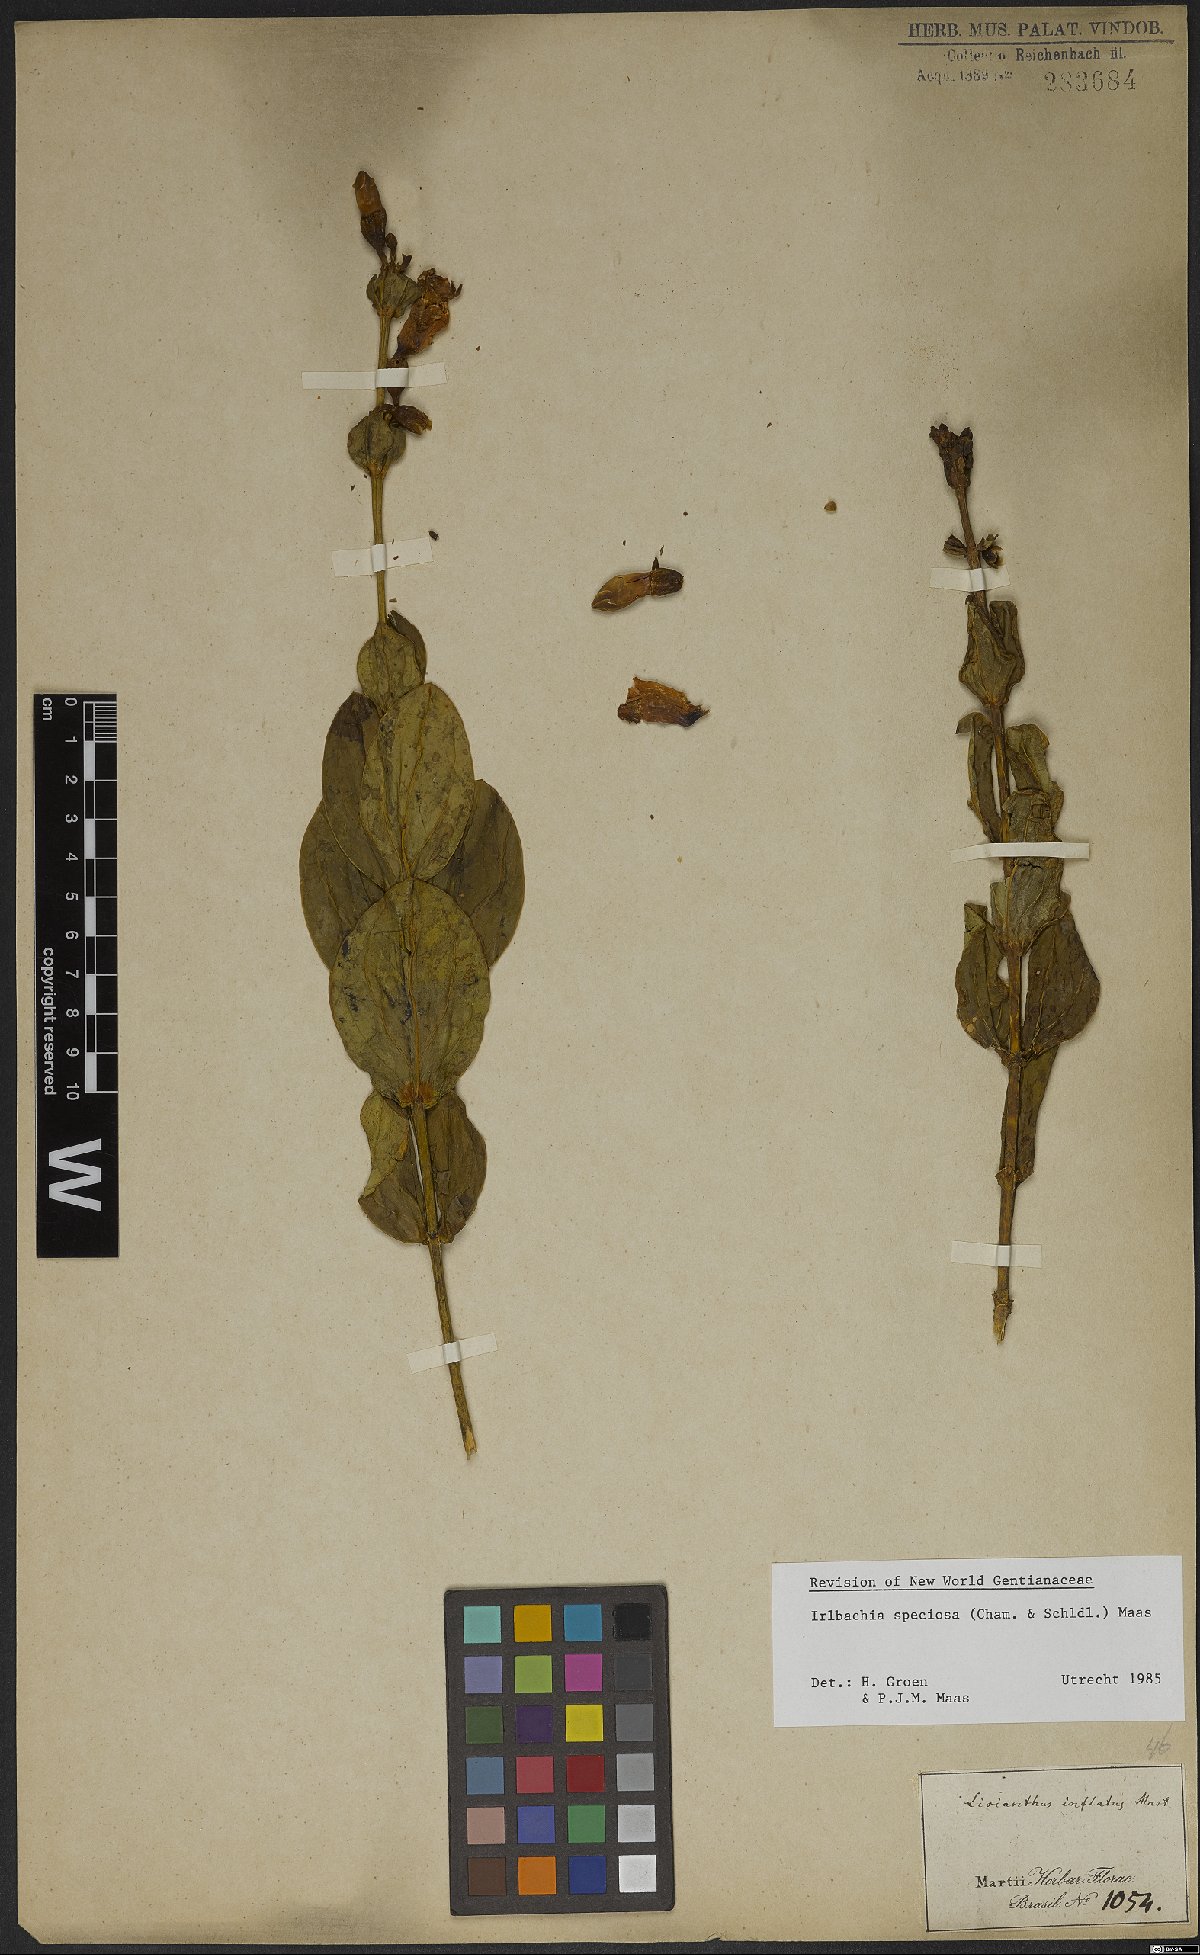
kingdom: Plantae
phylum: Tracheophyta
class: Magnoliopsida
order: Gentianales
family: Gentianaceae
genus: Calolisianthus
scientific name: Calolisianthus speciosus
